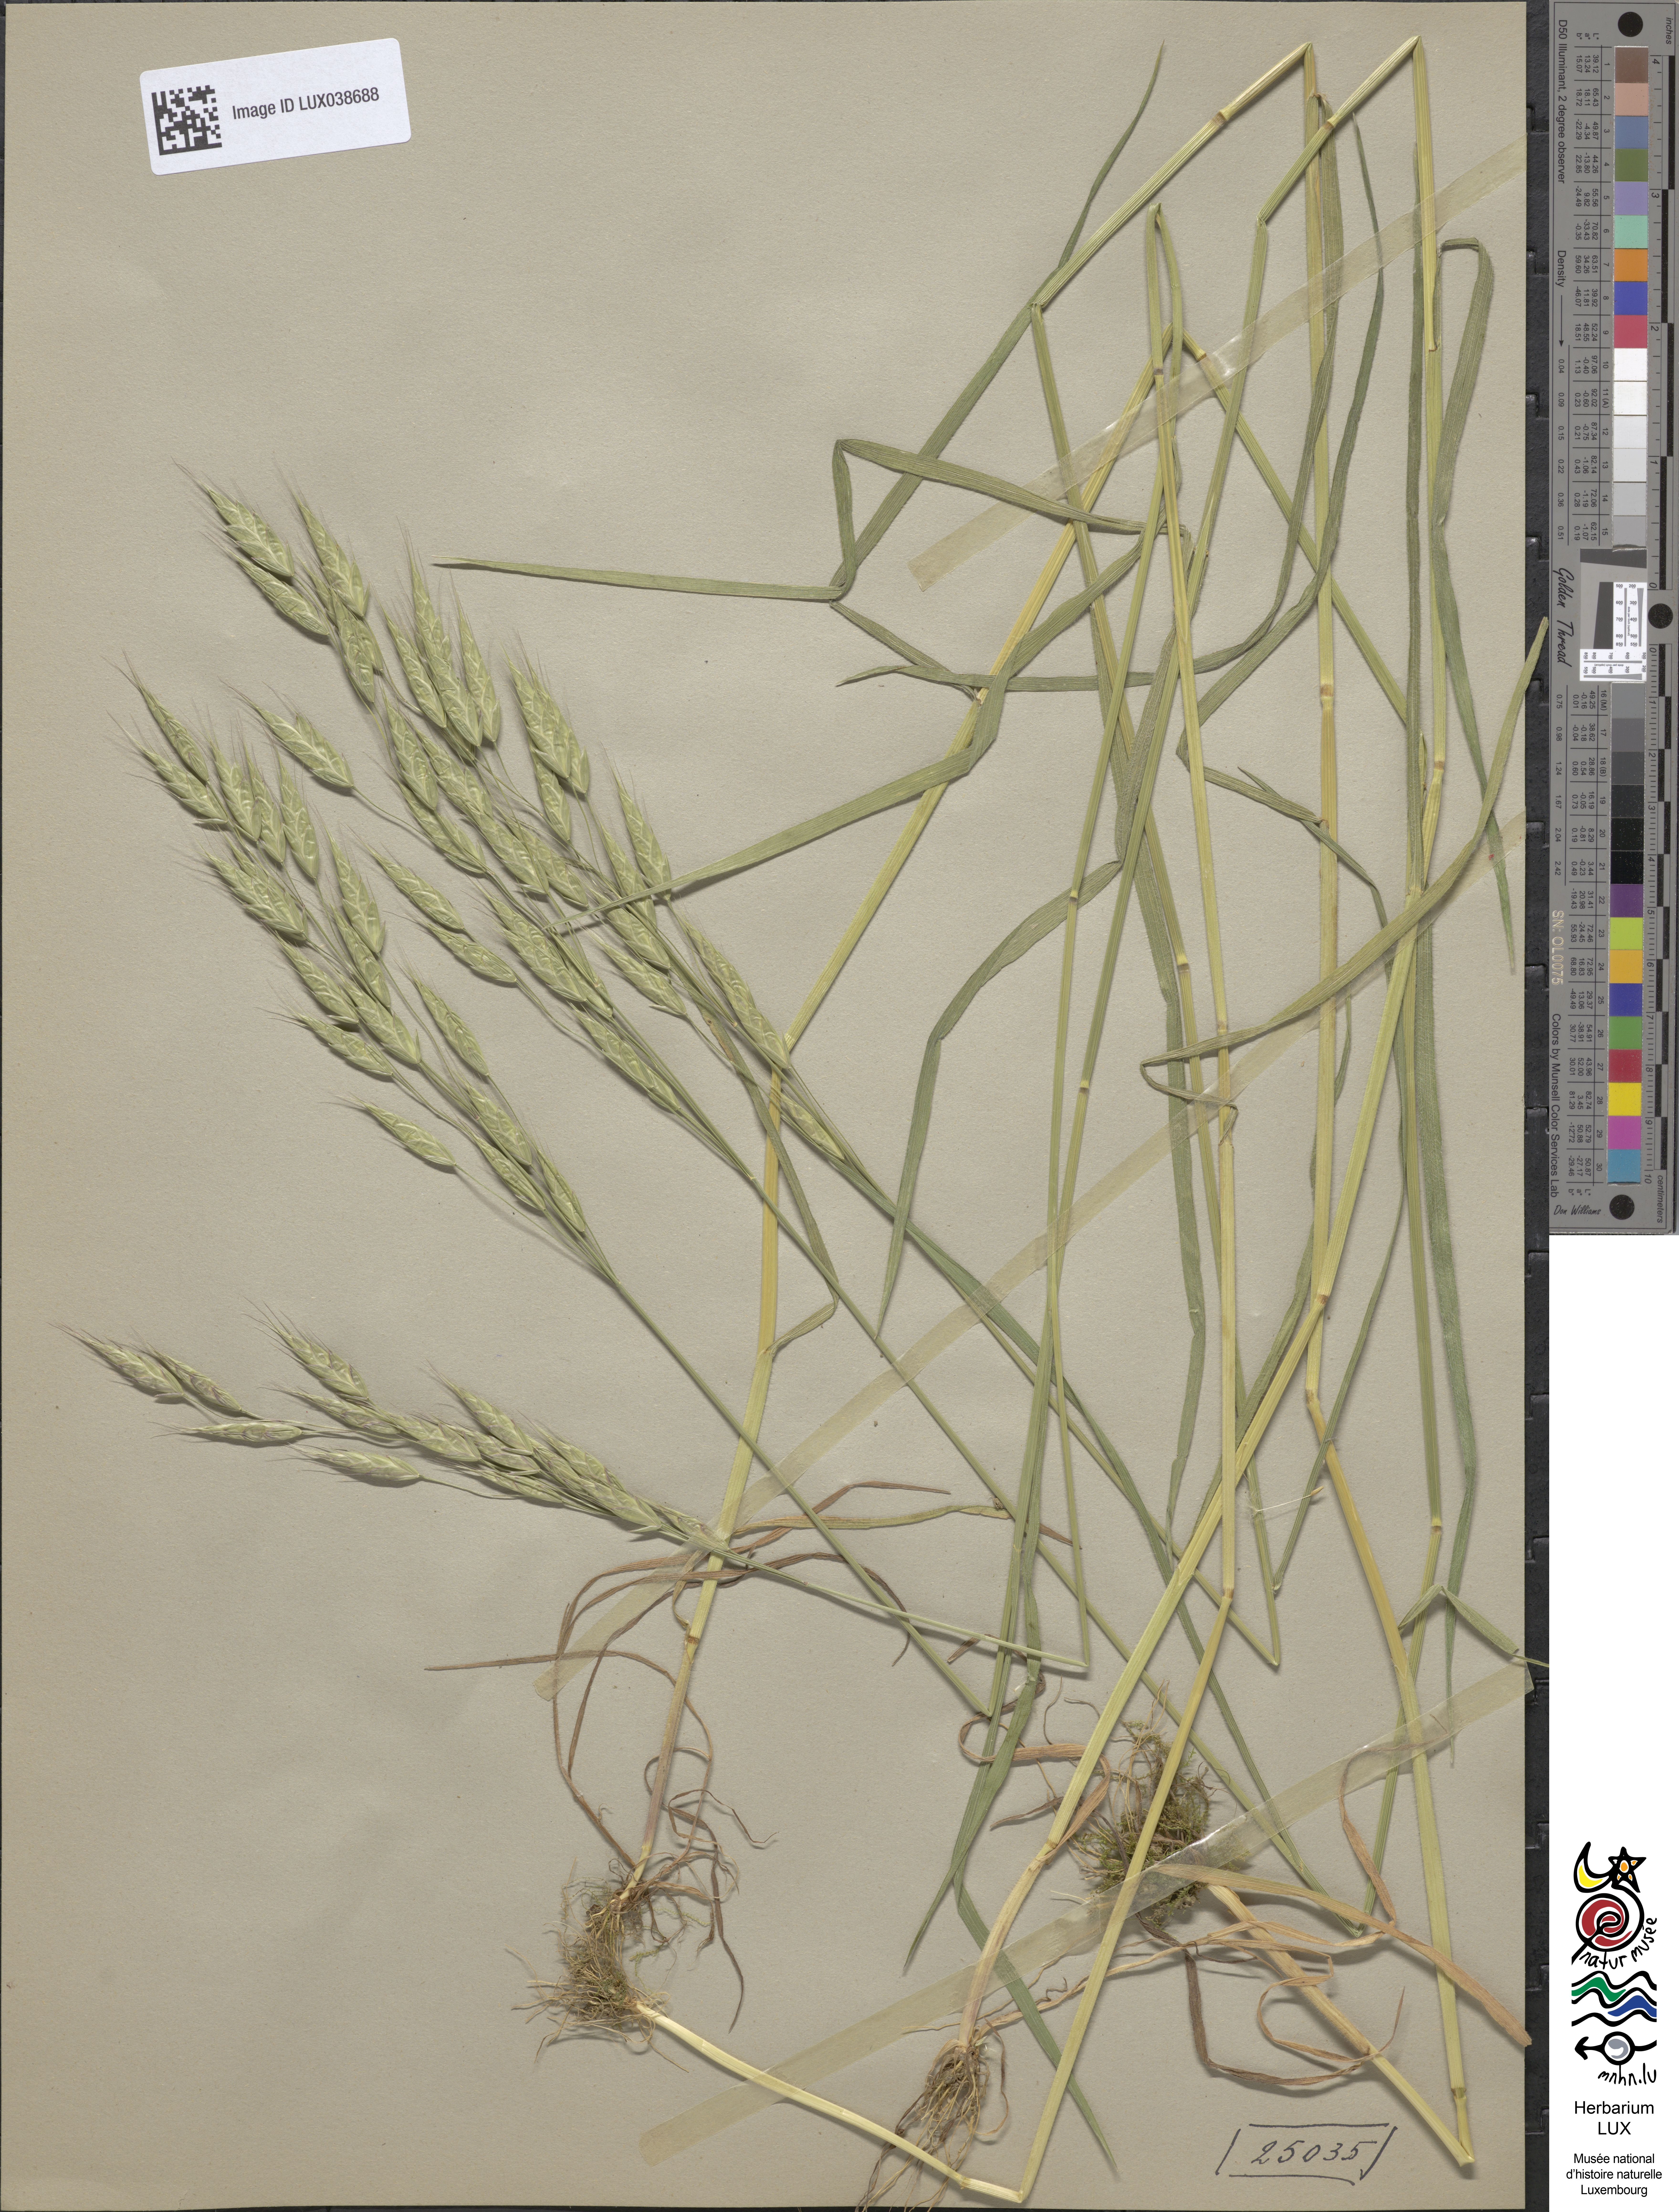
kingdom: Plantae
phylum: Tracheophyta
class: Liliopsida
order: Poales
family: Poaceae
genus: Bromus
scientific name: Bromus commutatus
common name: Meadow brome
